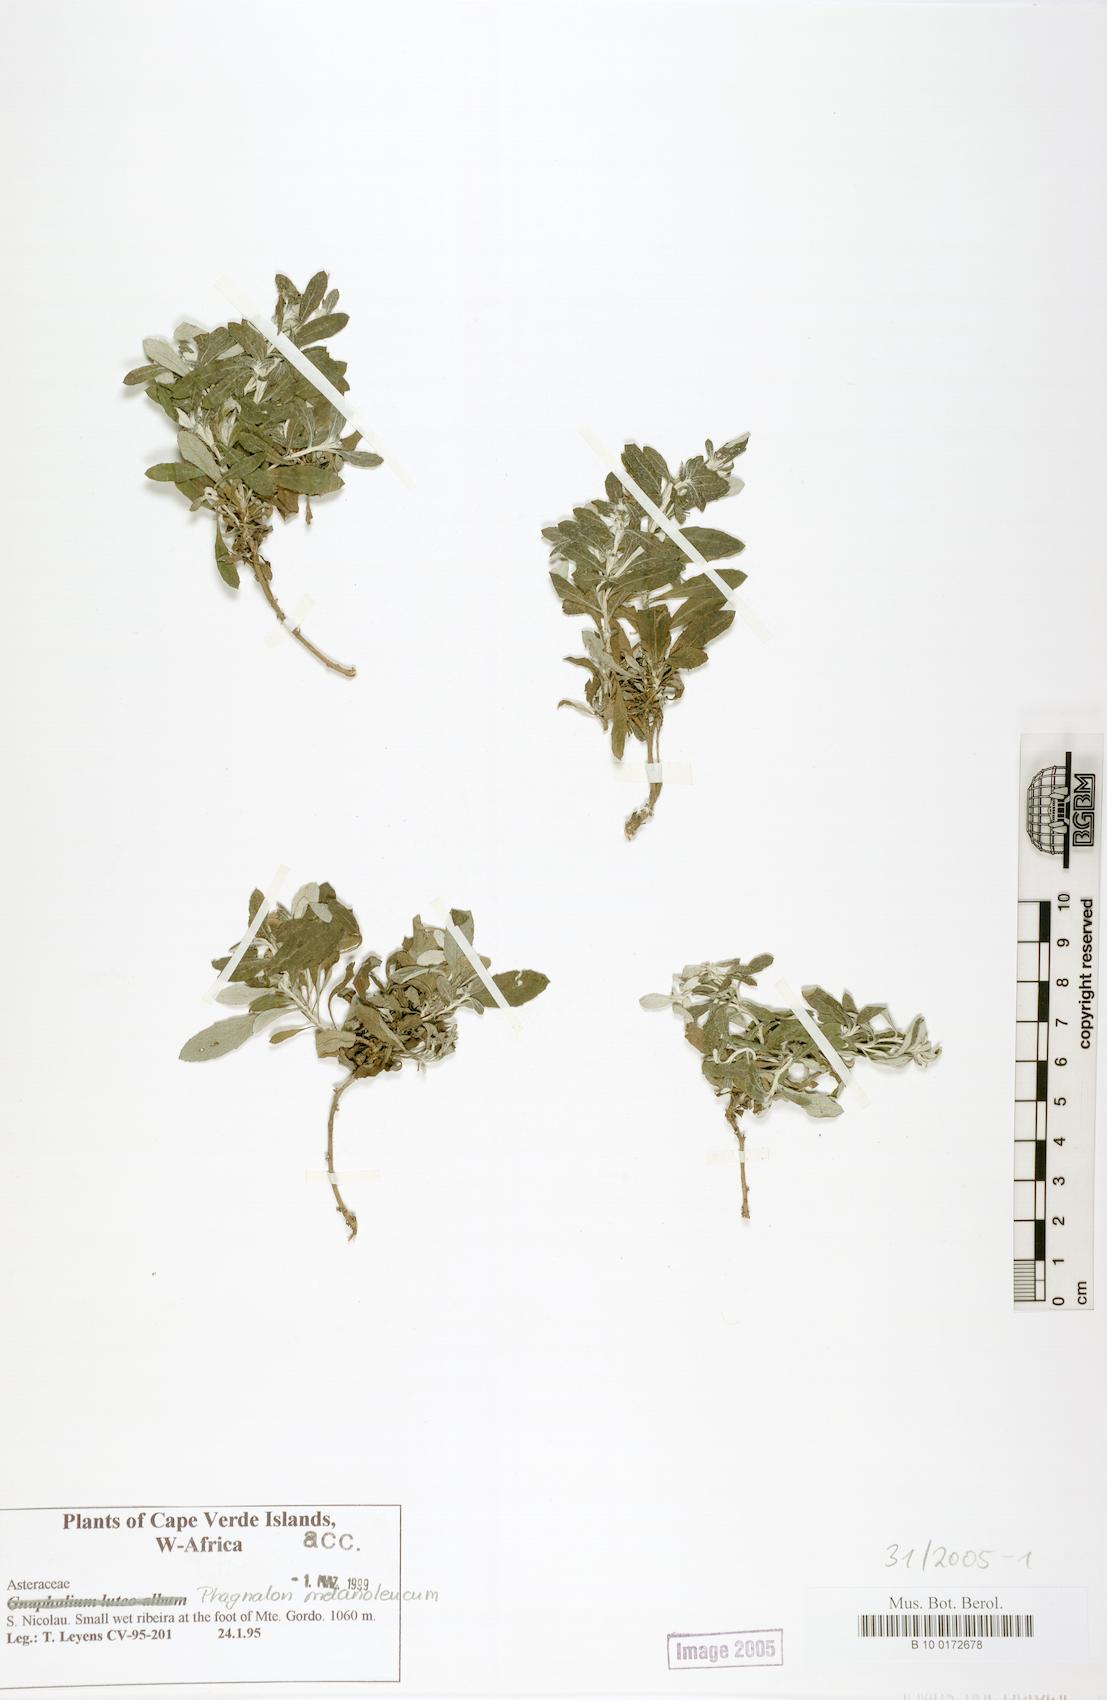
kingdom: Plantae
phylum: Tracheophyta
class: Magnoliopsida
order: Asterales
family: Asteraceae
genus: Phagnalon
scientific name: Phagnalon melanoleucum
